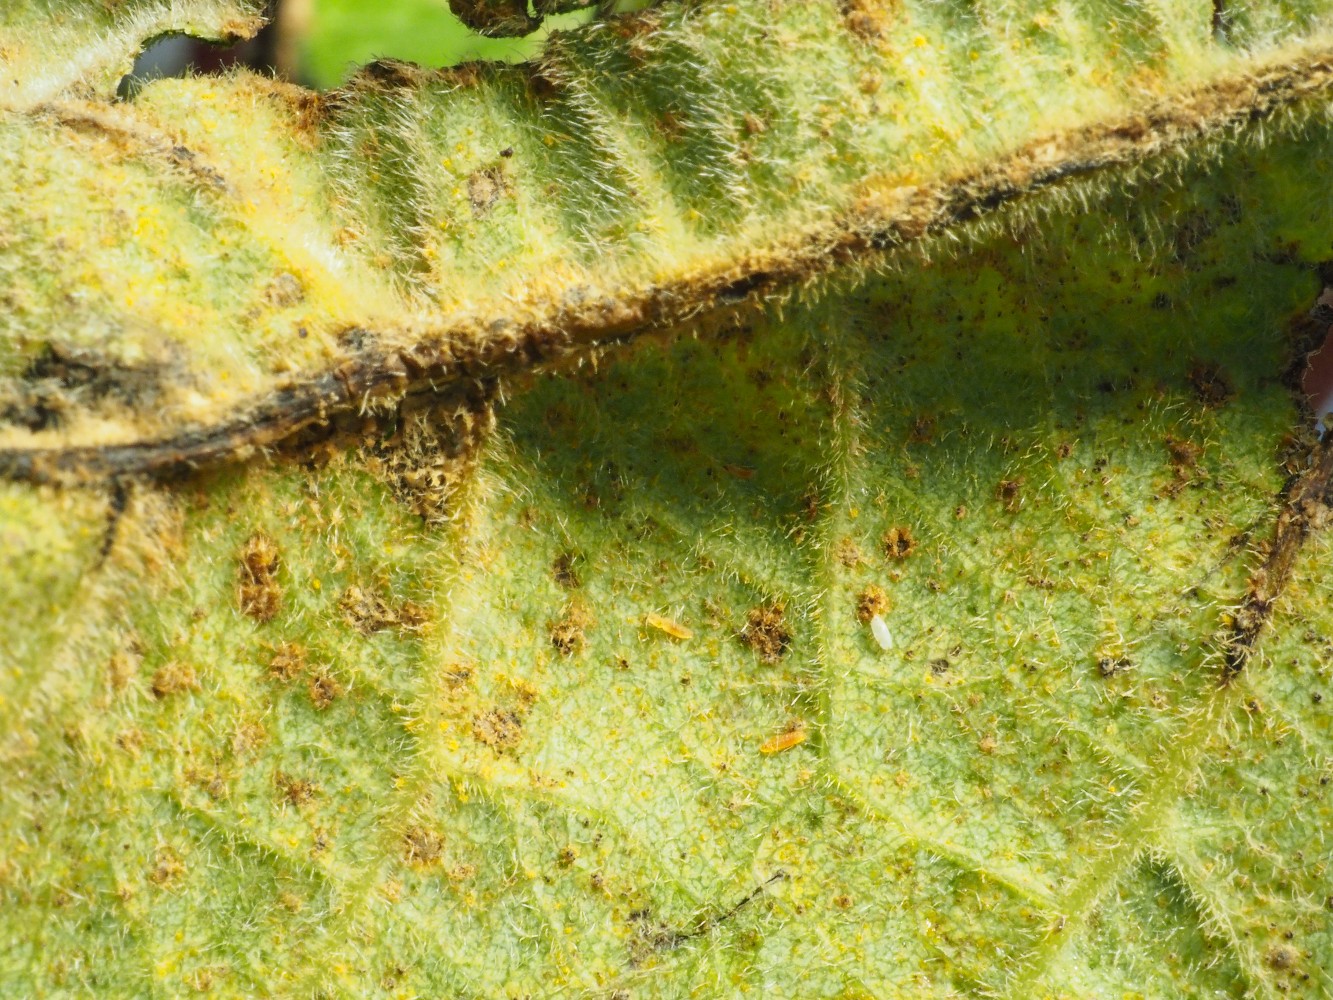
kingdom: Fungi
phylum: Basidiomycota
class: Pucciniomycetes
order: Pucciniales
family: Melampsoraceae
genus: Melampsora
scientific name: Melampsora populnea
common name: poppel-skorperust
